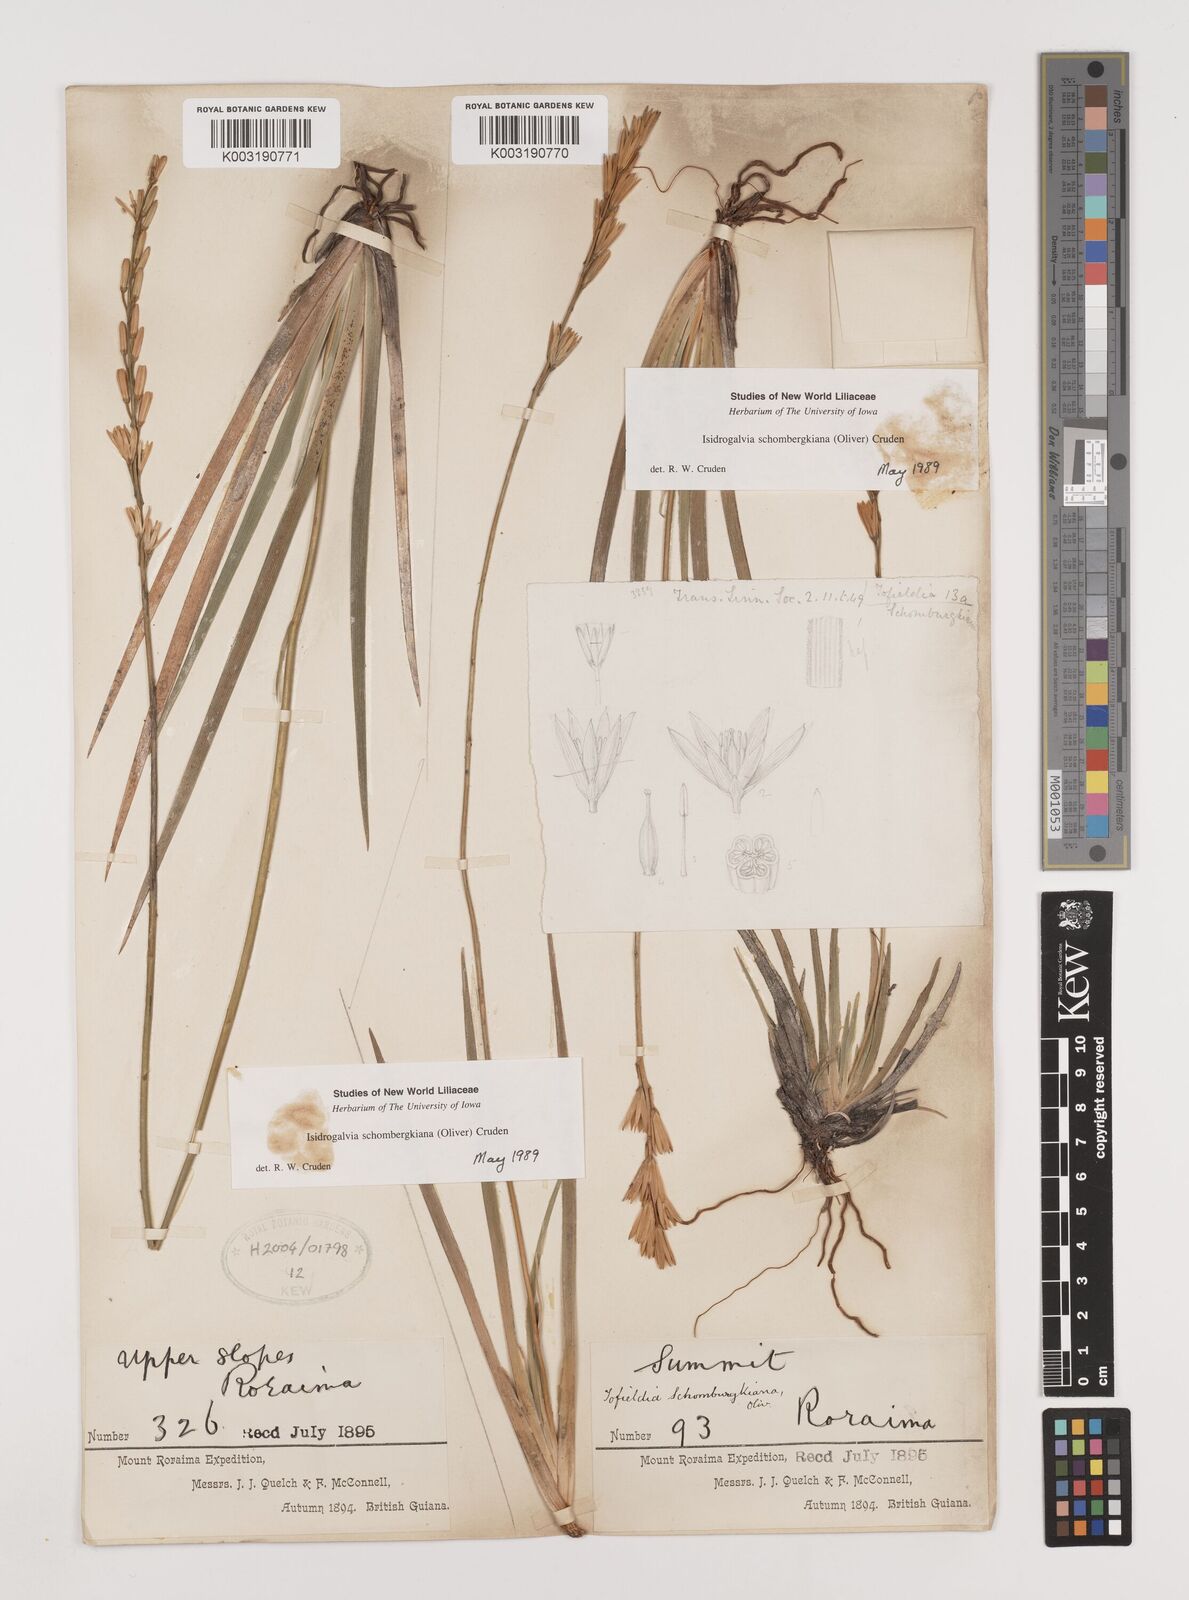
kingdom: Plantae
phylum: Tracheophyta
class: Liliopsida
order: Alismatales
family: Tofieldiaceae
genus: Harperocallis
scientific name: Harperocallis schomburgkiana
